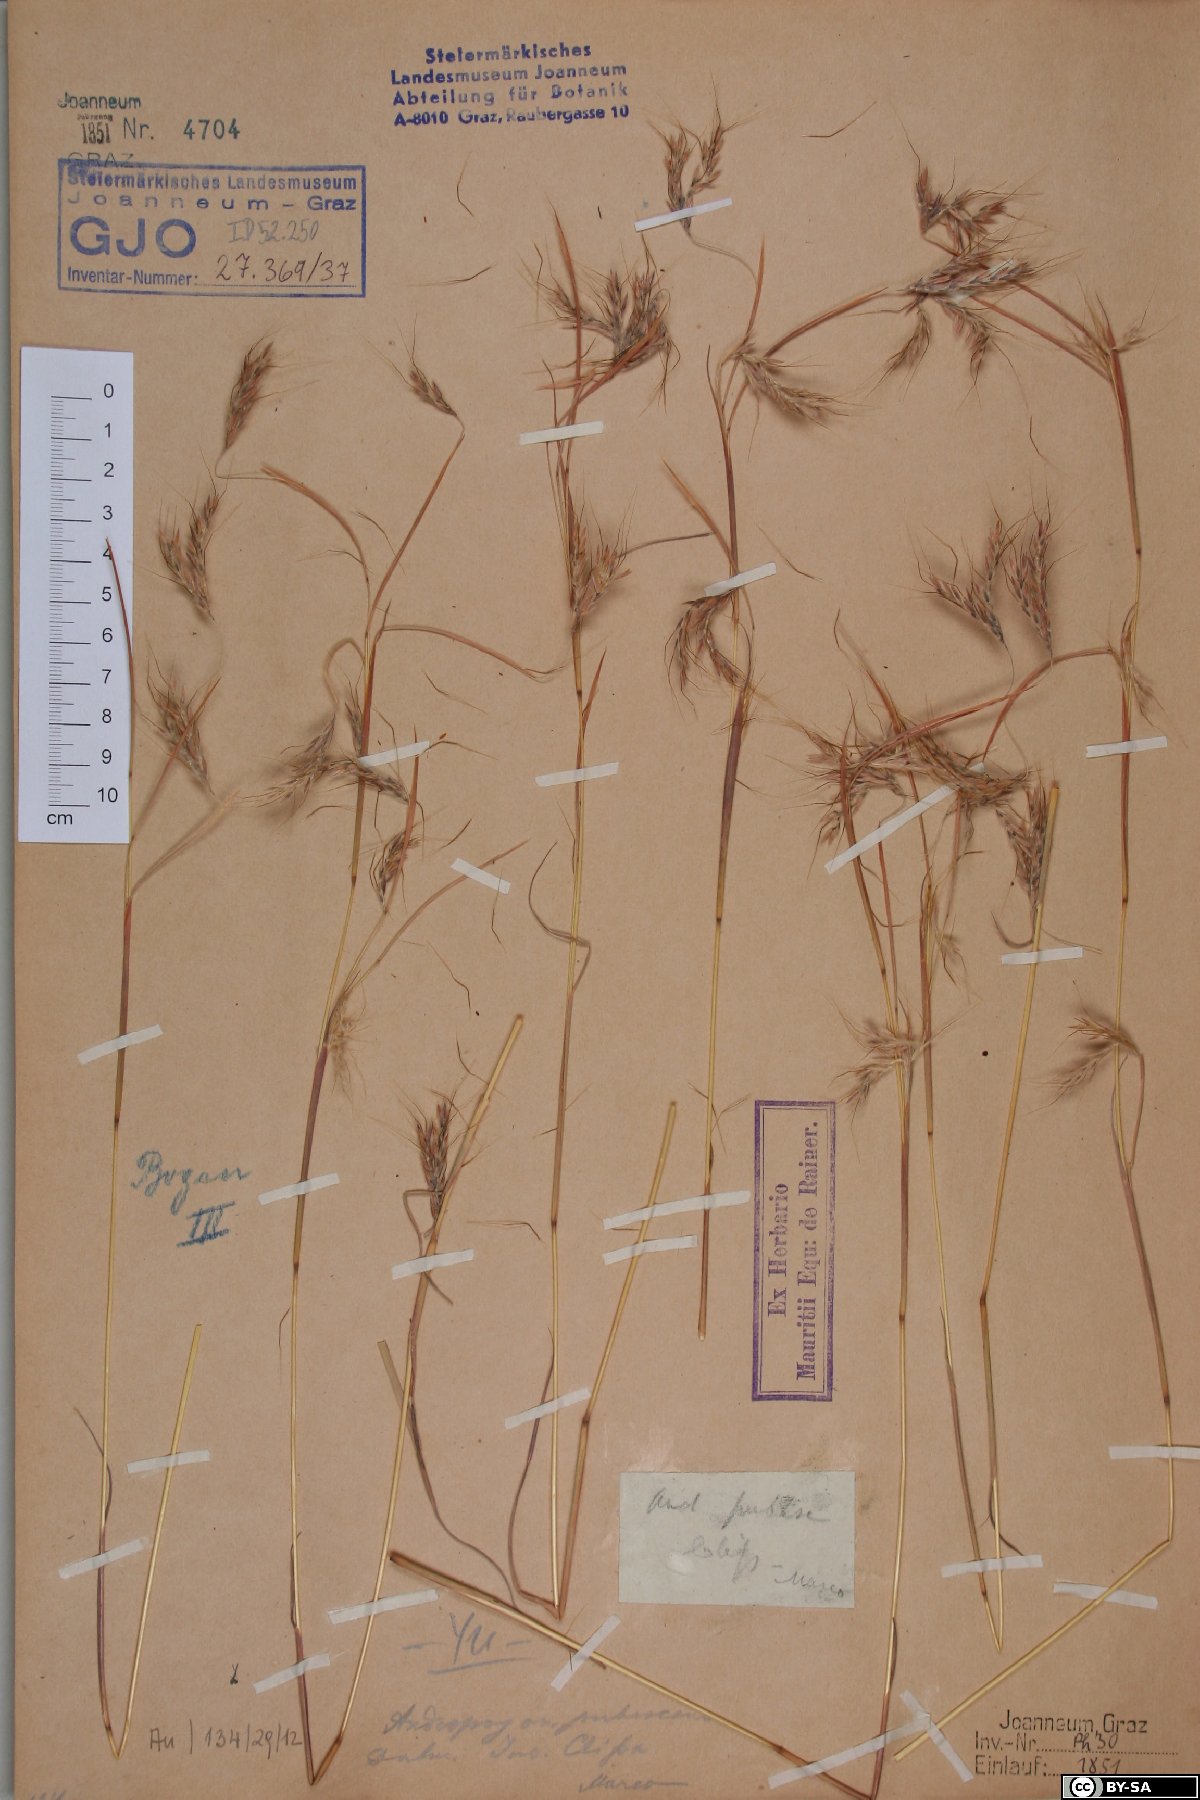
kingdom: Plantae
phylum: Tracheophyta
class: Liliopsida
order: Poales
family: Poaceae
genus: Hyparrhenia
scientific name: Hyparrhenia hirta
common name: Thatching grass
